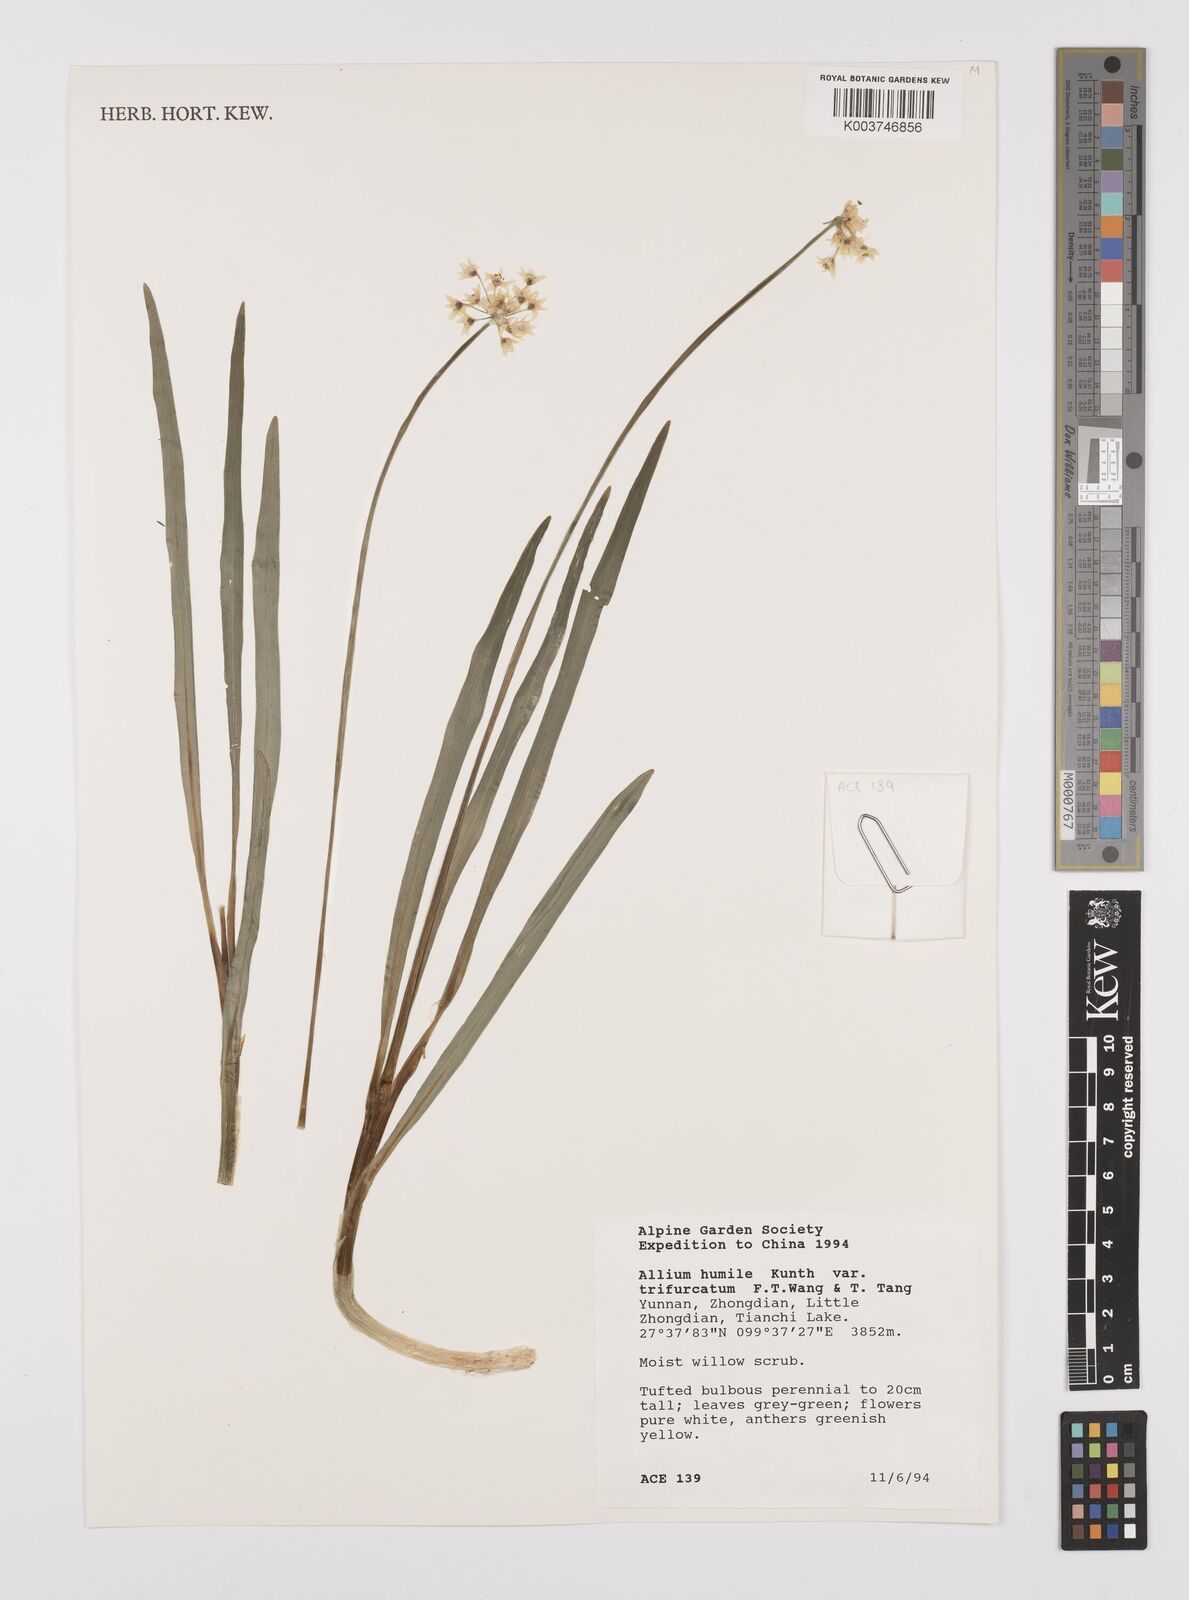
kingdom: Plantae
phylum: Tracheophyta
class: Liliopsida
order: Asparagales
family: Amaryllidaceae
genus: Allium
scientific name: Allium trifurcatum
